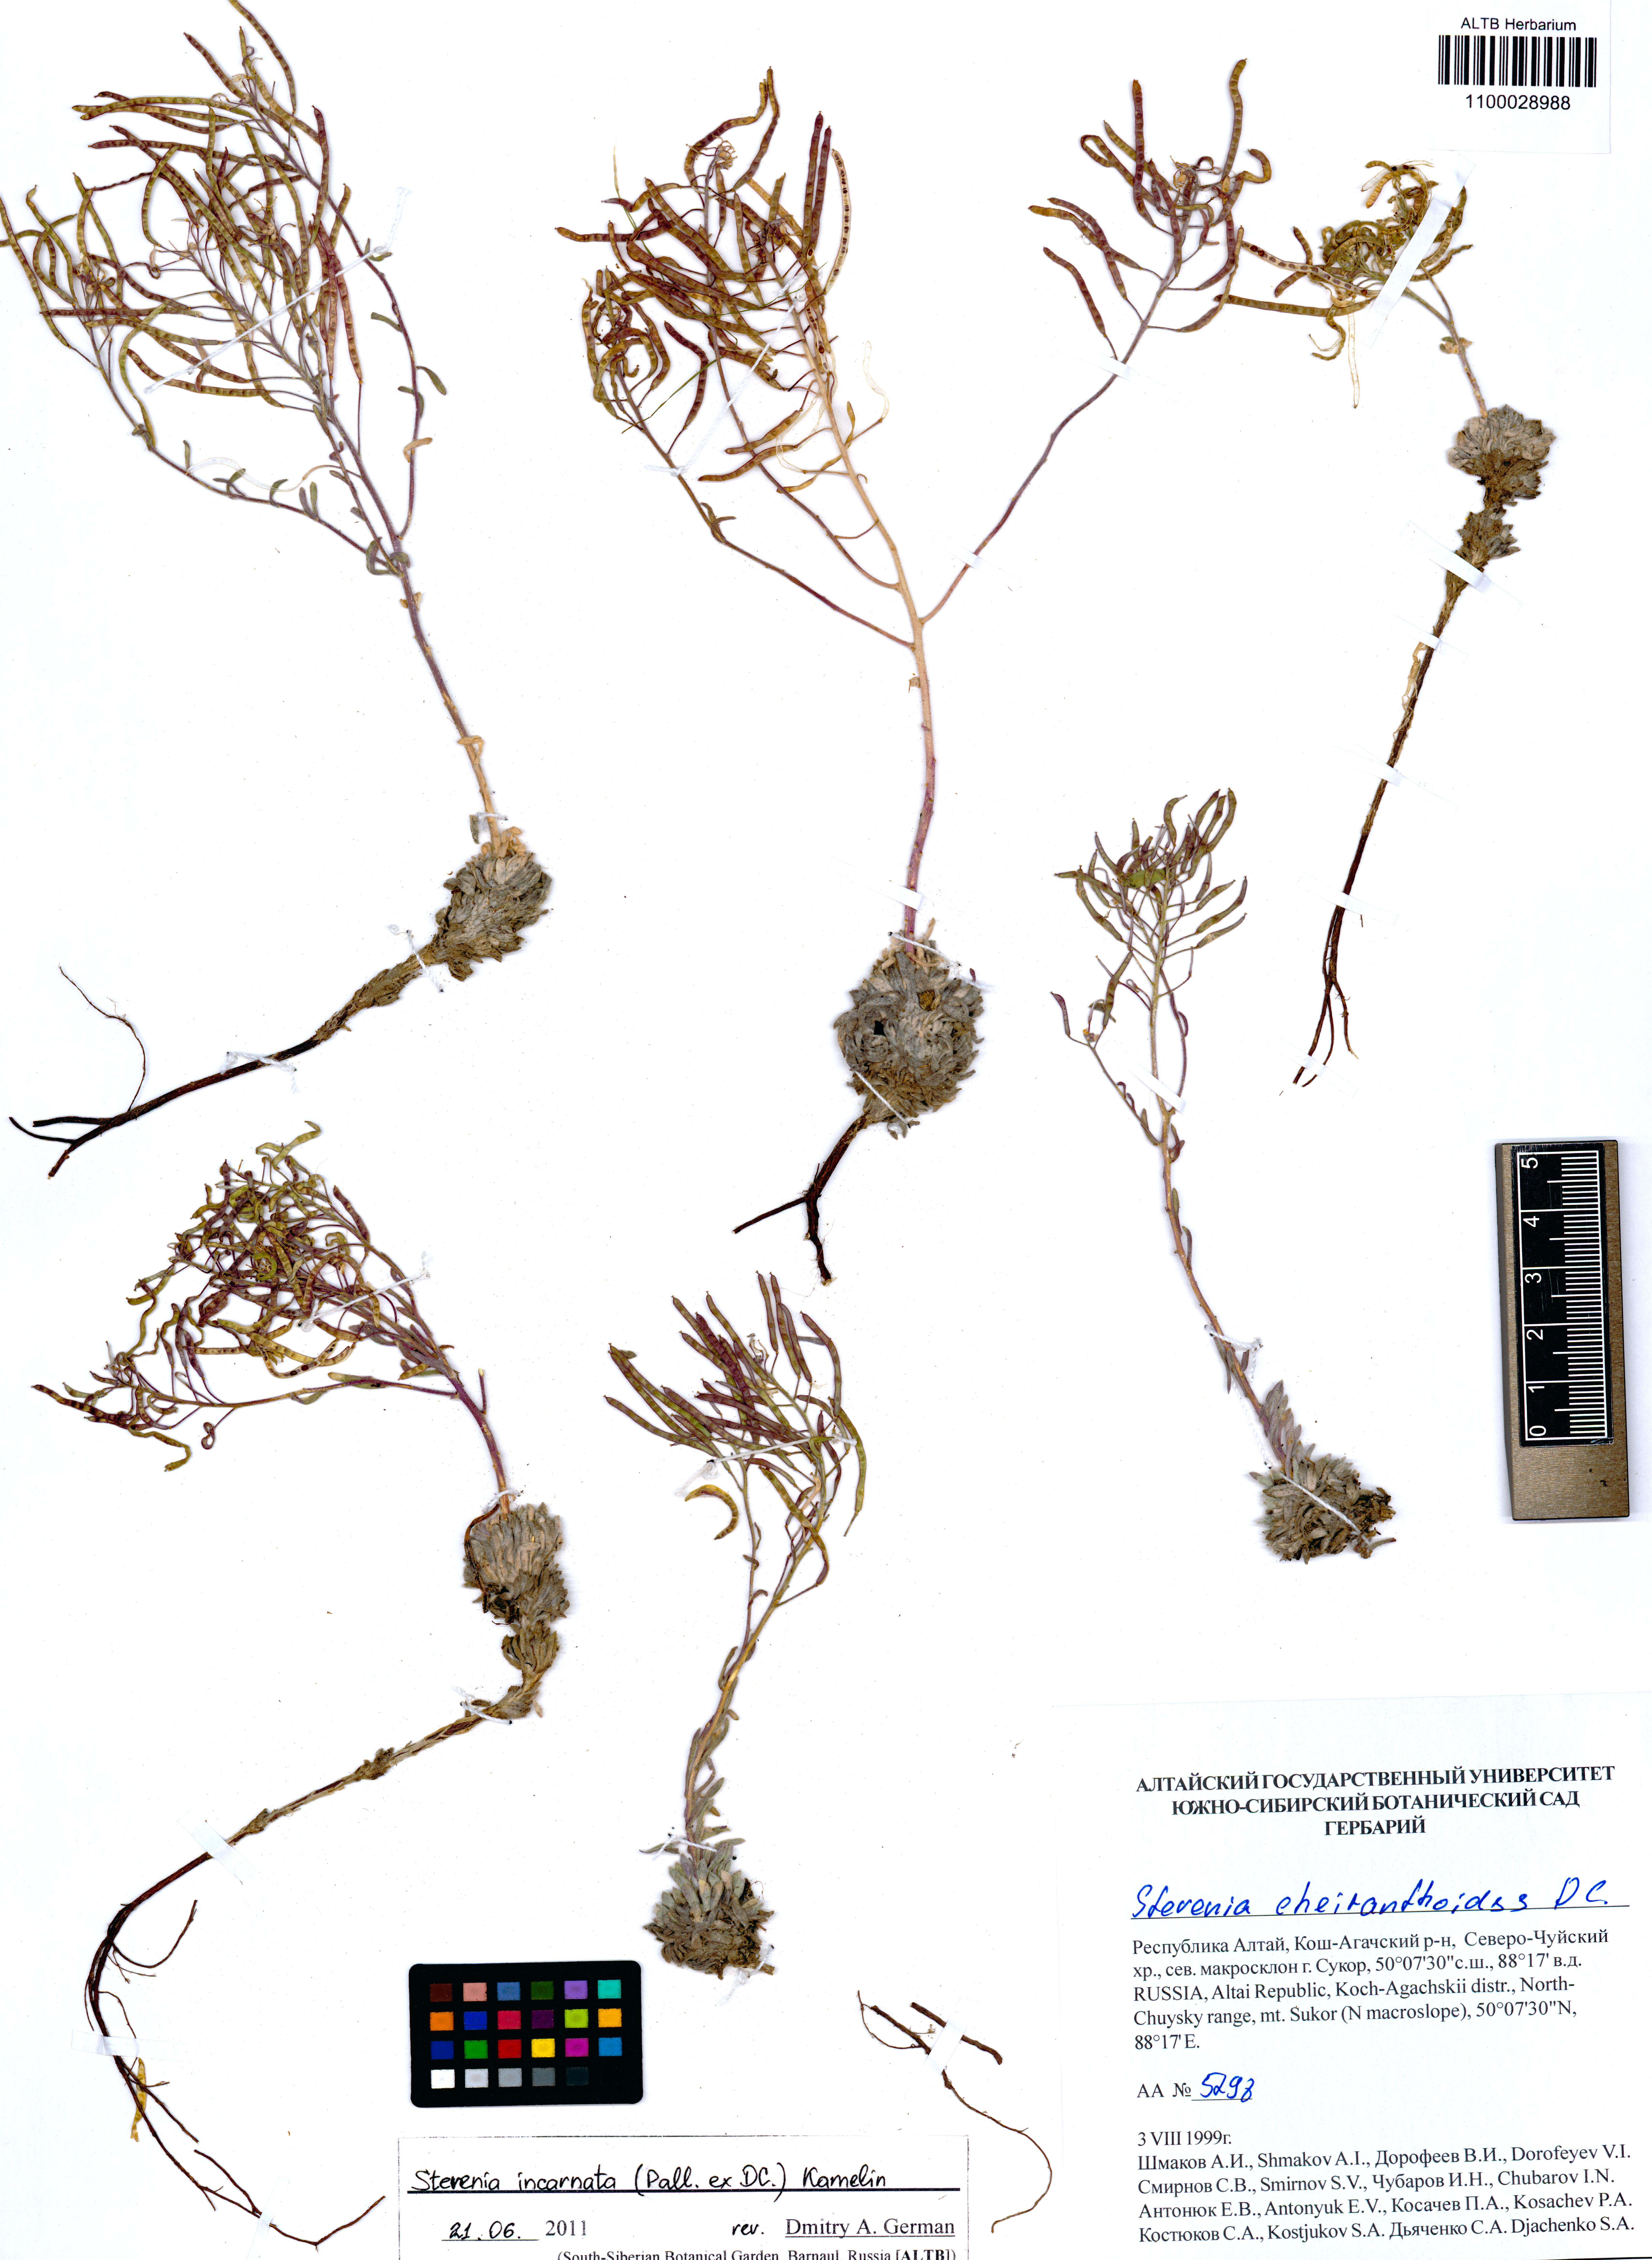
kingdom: Plantae
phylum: Tracheophyta
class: Magnoliopsida
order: Brassicales
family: Brassicaceae
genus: Stevenia
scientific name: Stevenia incarnata
